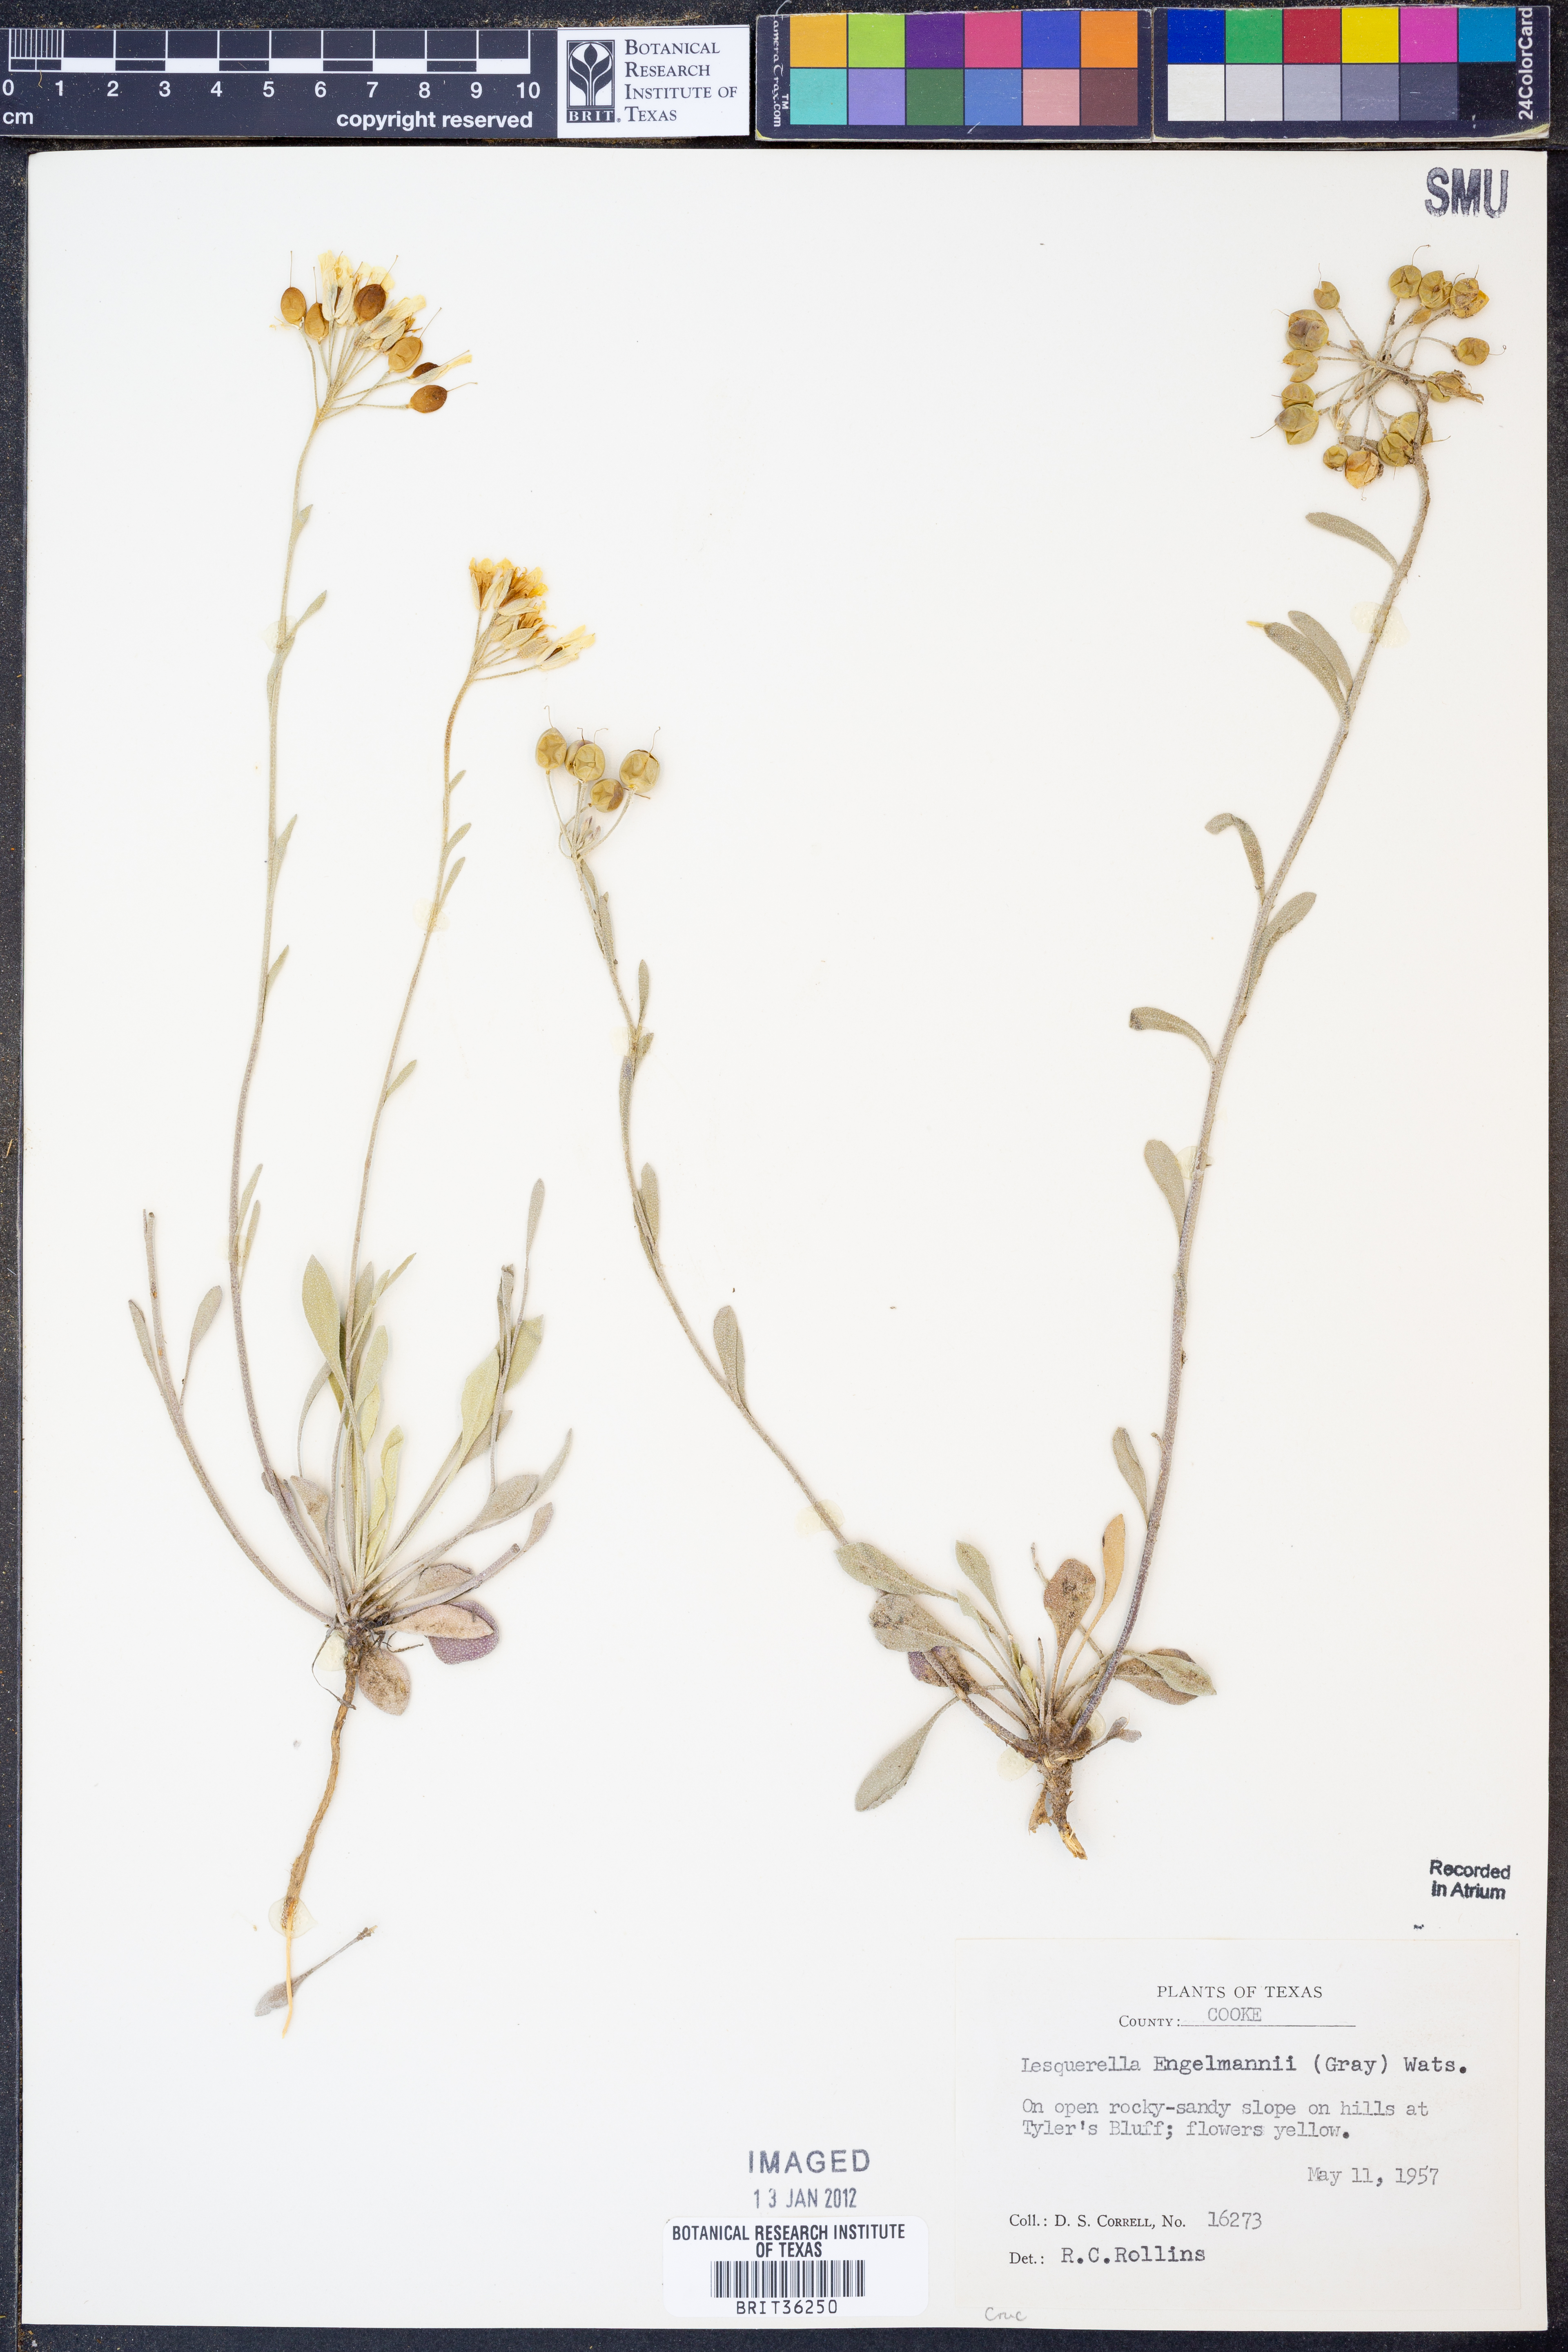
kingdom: Plantae
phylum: Tracheophyta
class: Magnoliopsida
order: Brassicales
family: Brassicaceae
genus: Physaria
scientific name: Physaria engelmannii
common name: Engelmann's bladderpod
